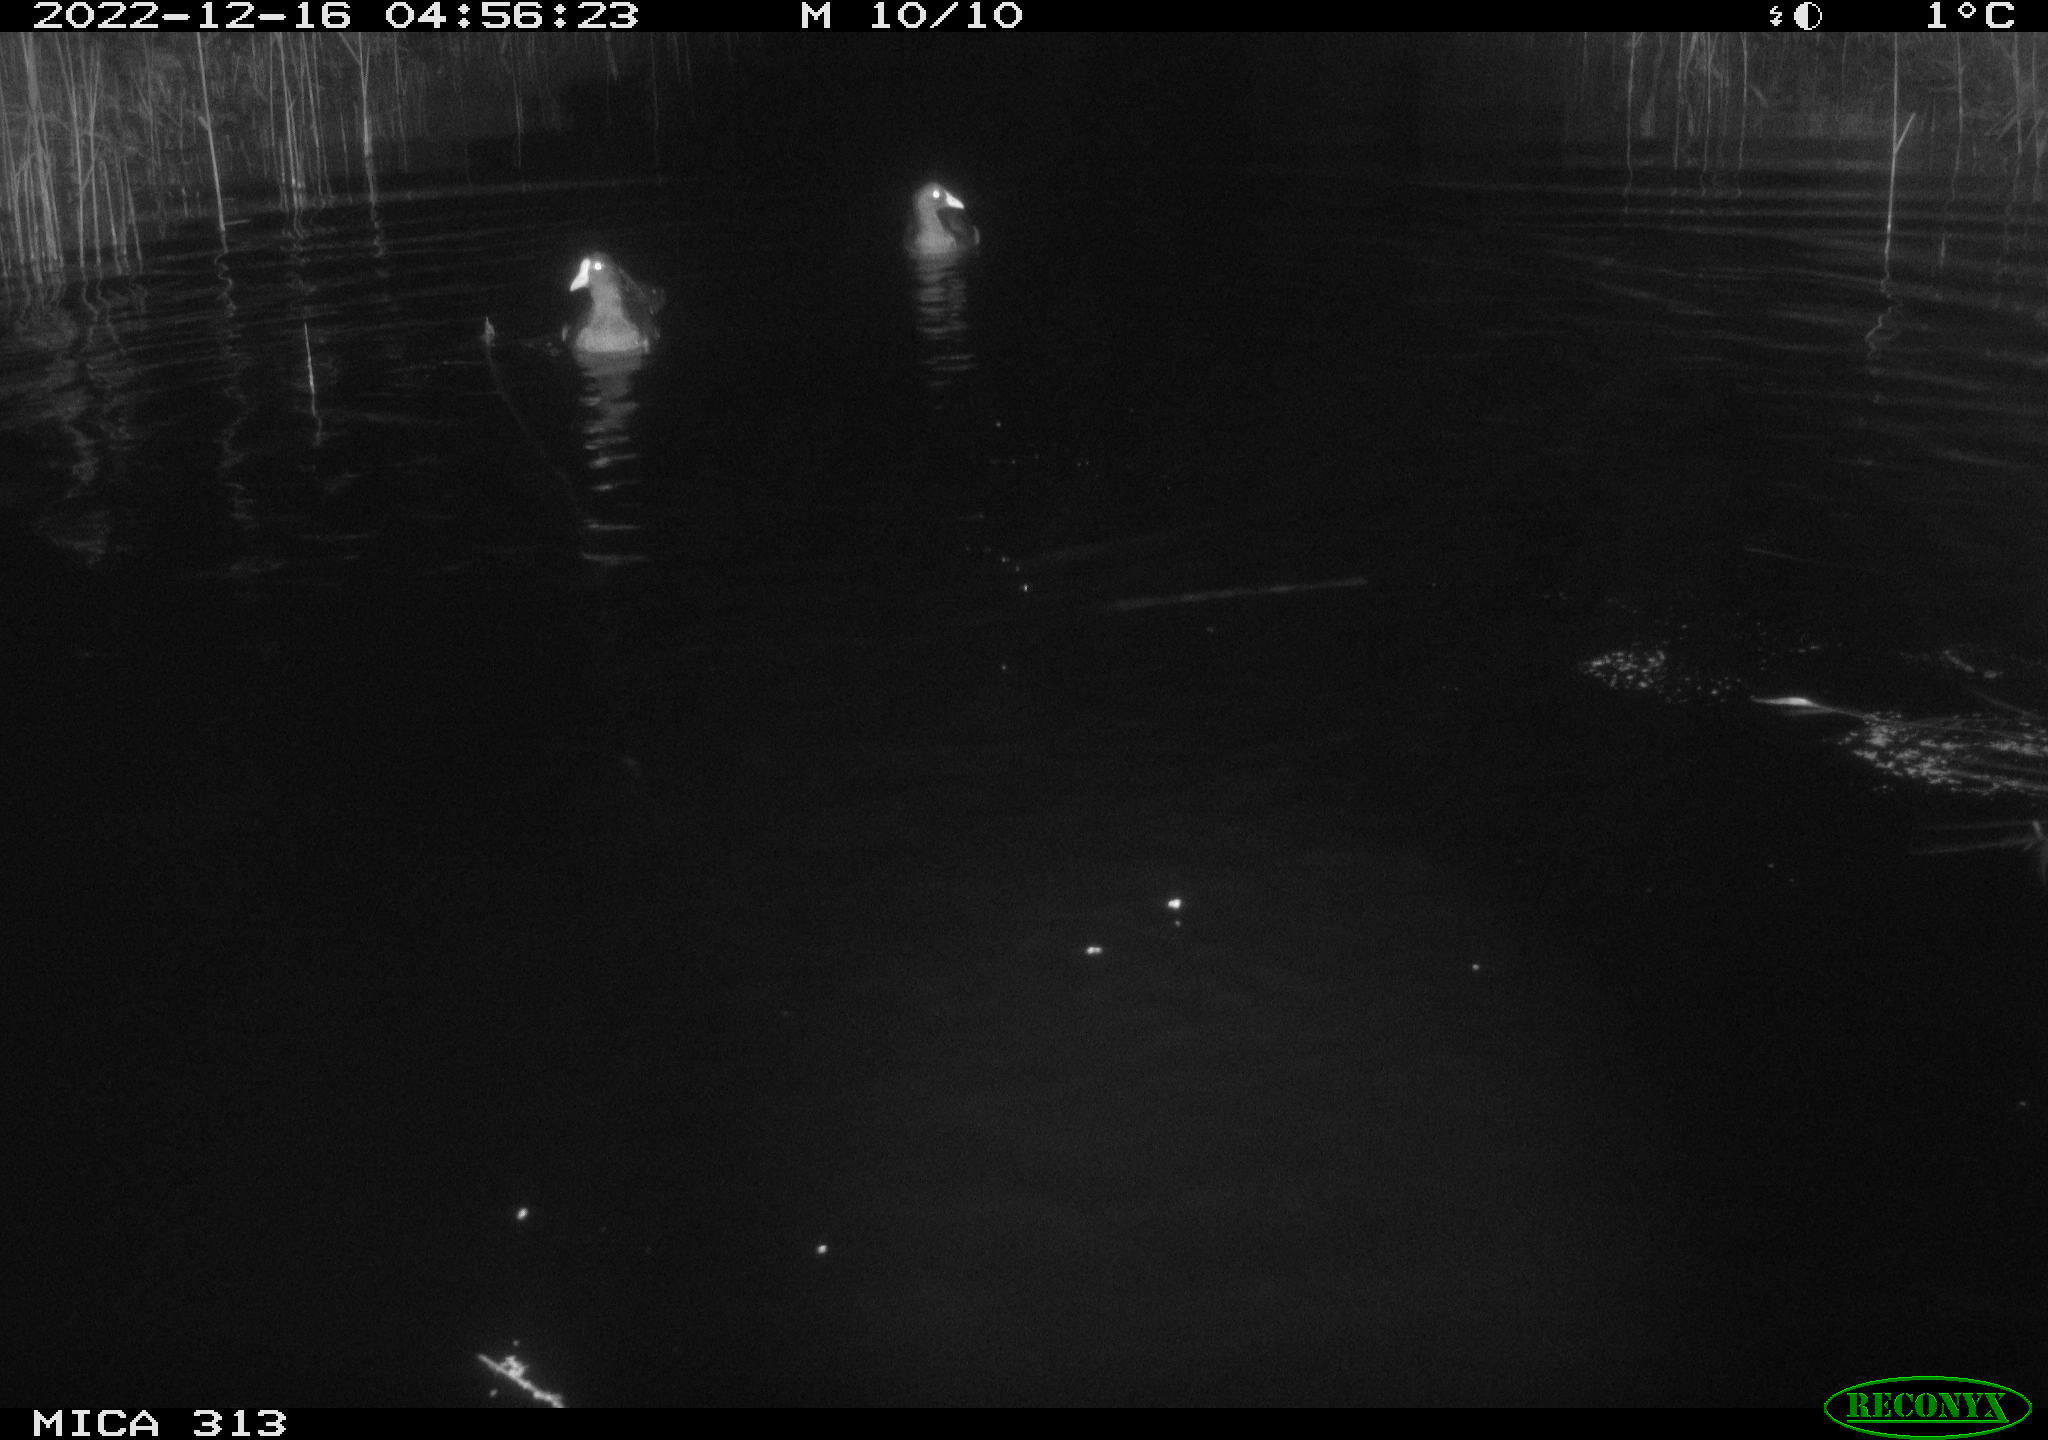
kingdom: Animalia
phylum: Chordata
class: Aves
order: Gruiformes
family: Rallidae
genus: Gallinula
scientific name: Gallinula chloropus
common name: Common moorhen
